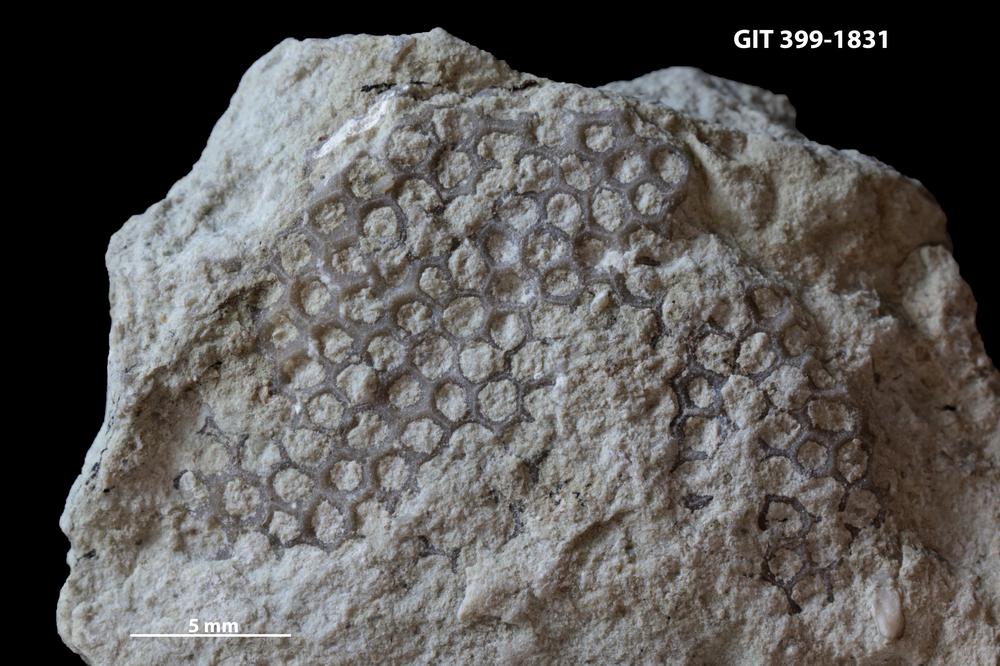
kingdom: Plantae
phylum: Chlorophyta
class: Ulvophyceae
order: Cyclocrinales
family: Cyclocrinaceae
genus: Mastopora
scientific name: Mastopora concava
